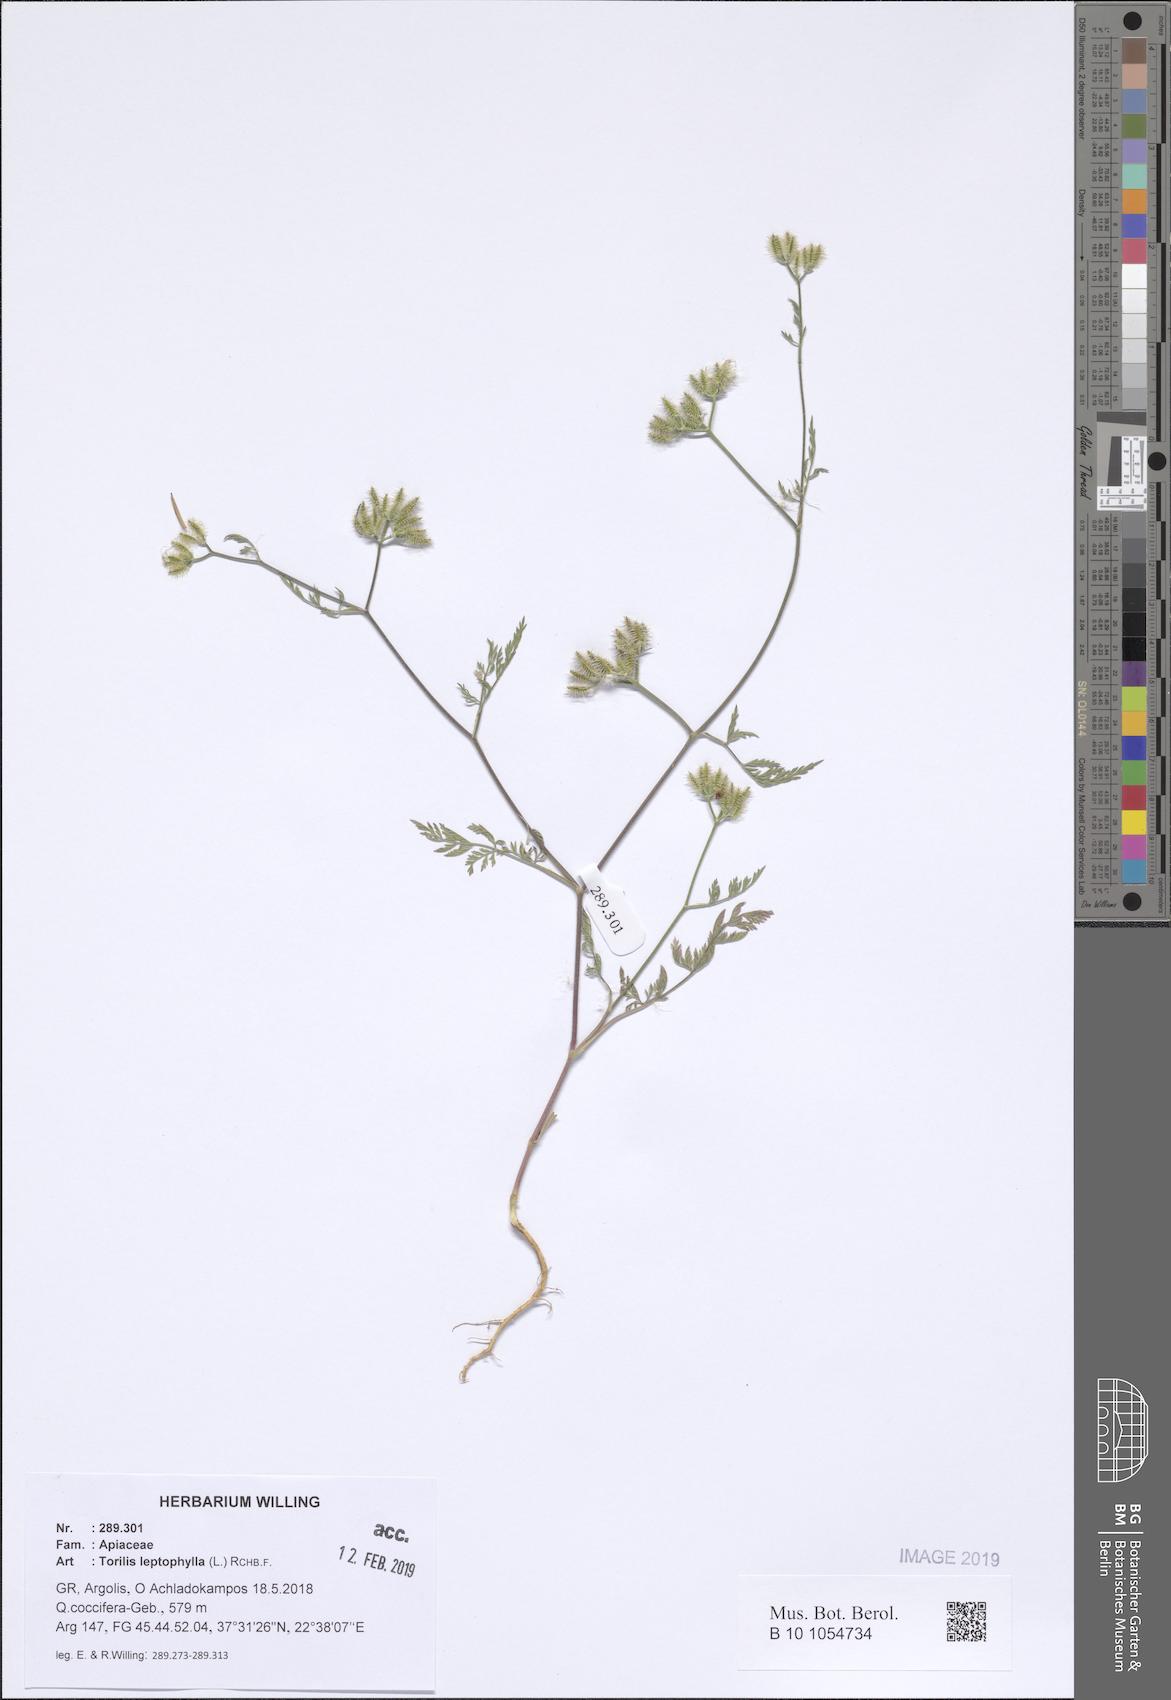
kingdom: Plantae
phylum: Tracheophyta
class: Magnoliopsida
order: Apiales
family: Apiaceae
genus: Torilis
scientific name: Torilis leptophylla
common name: Bristlefruit hedgeparsley
